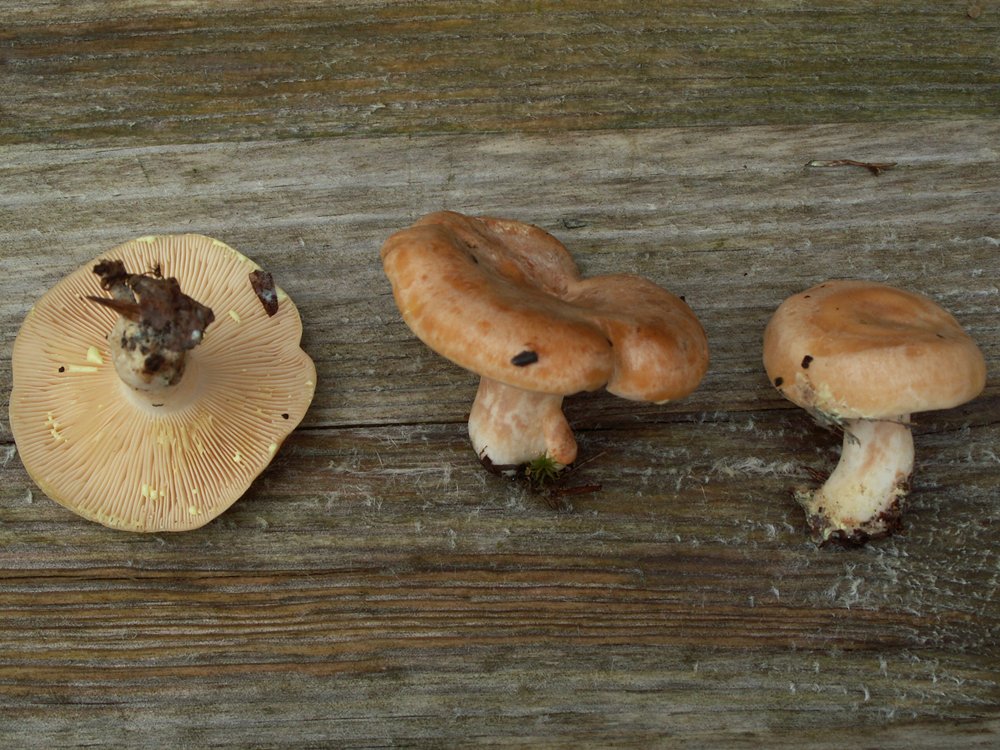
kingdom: Fungi
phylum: Basidiomycota
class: Agaricomycetes
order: Russulales
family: Russulaceae
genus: Lactarius
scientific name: Lactarius chrysorrheus
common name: svovlmælket mælkehat
